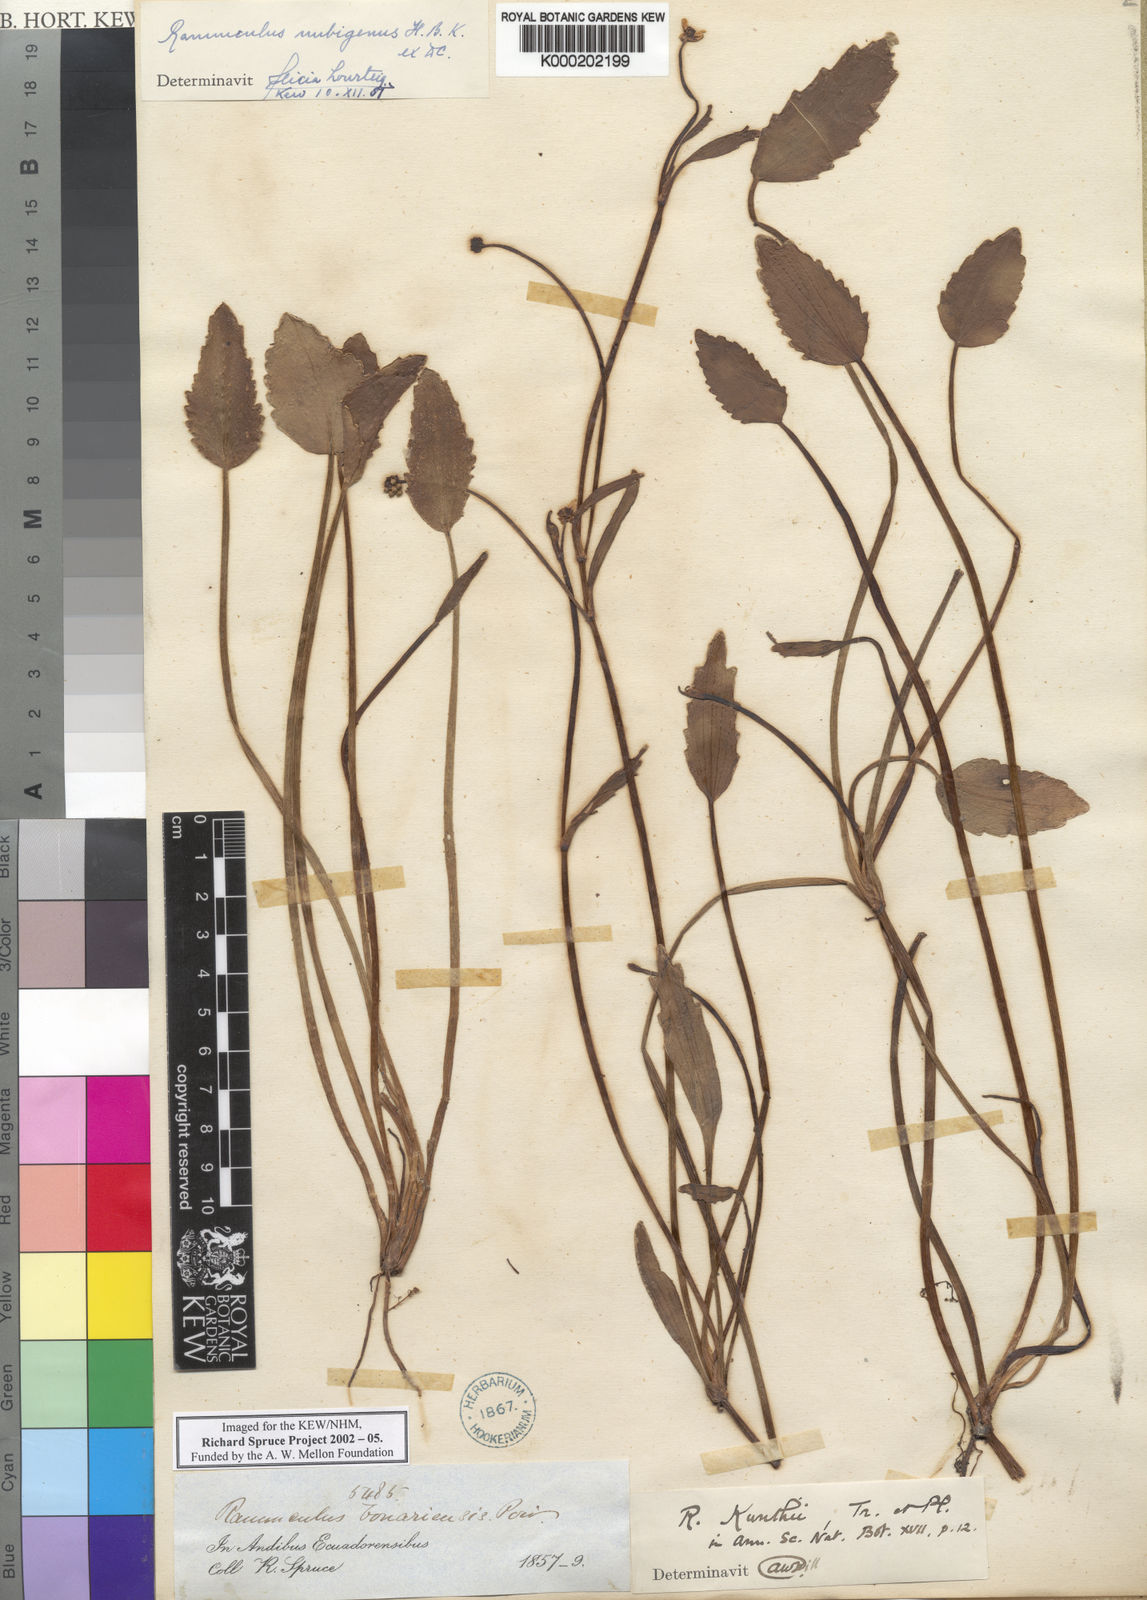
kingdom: Plantae
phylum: Tracheophyta
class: Magnoliopsida
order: Ranunculales
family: Ranunculaceae
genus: Ranunculus
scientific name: Ranunculus nubigenus
